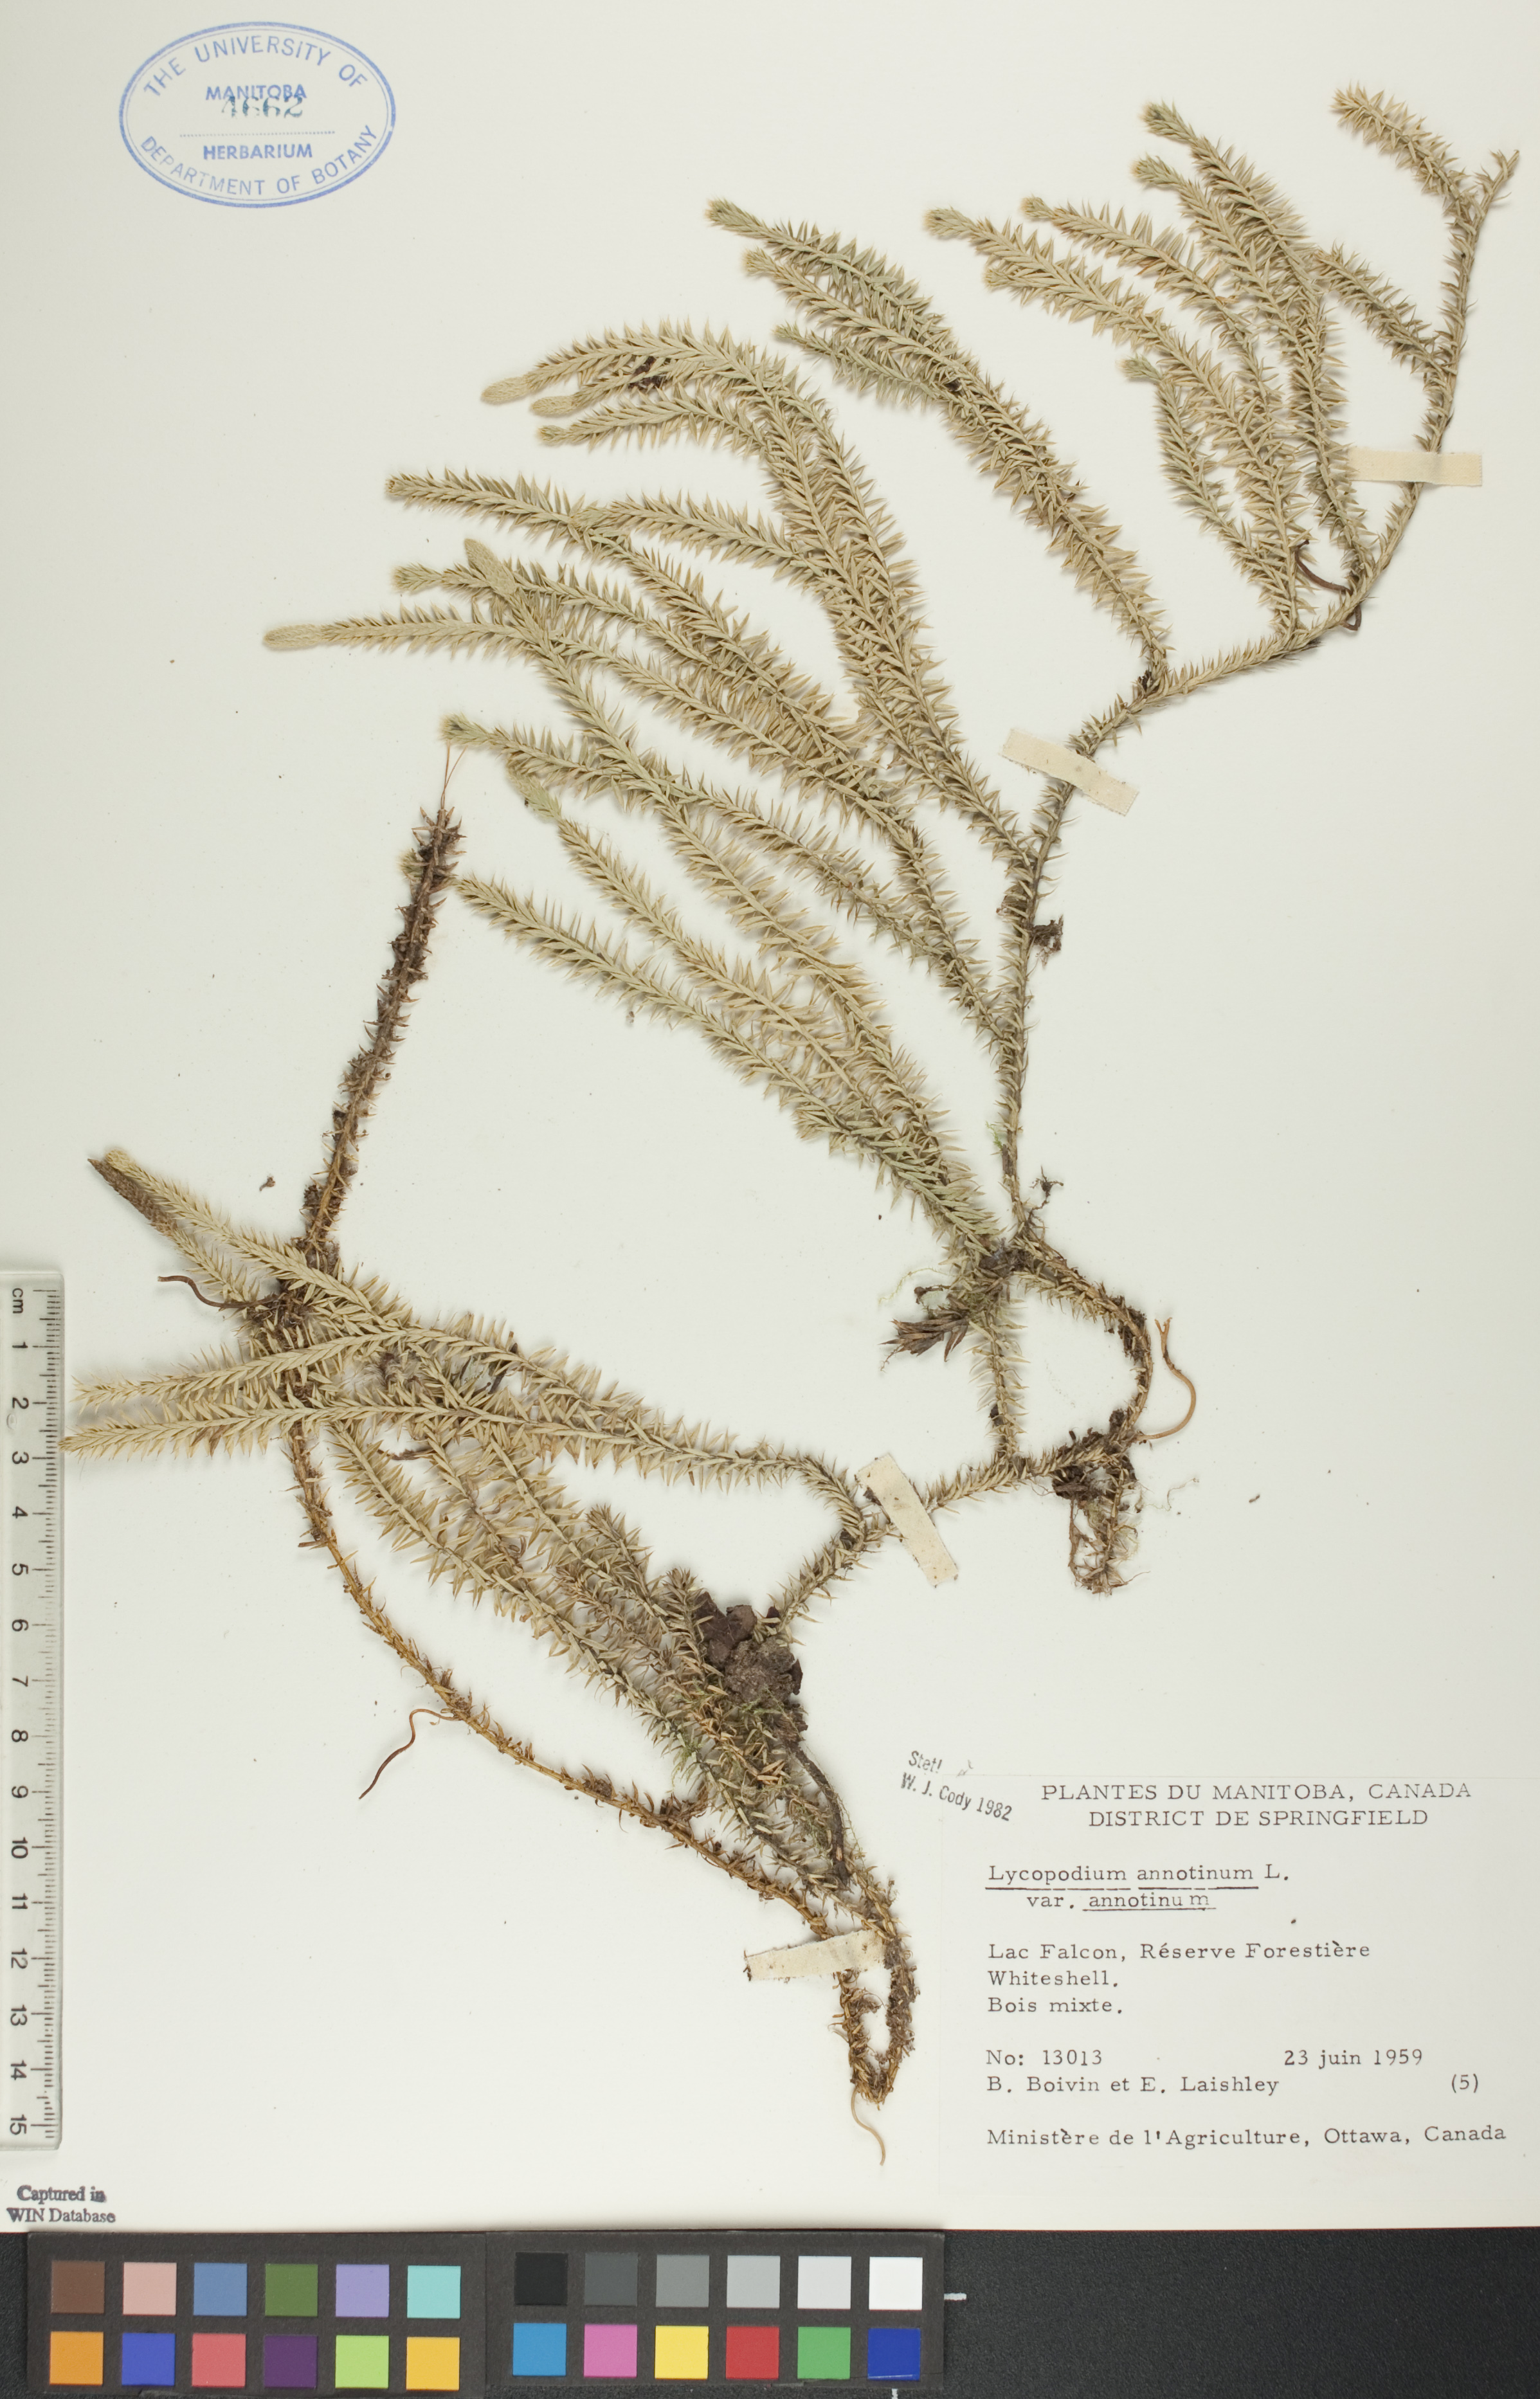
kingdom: Plantae
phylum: Tracheophyta
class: Lycopodiopsida
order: Lycopodiales
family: Lycopodiaceae
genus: Spinulum
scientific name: Spinulum annotinum
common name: Interrupted club-moss
